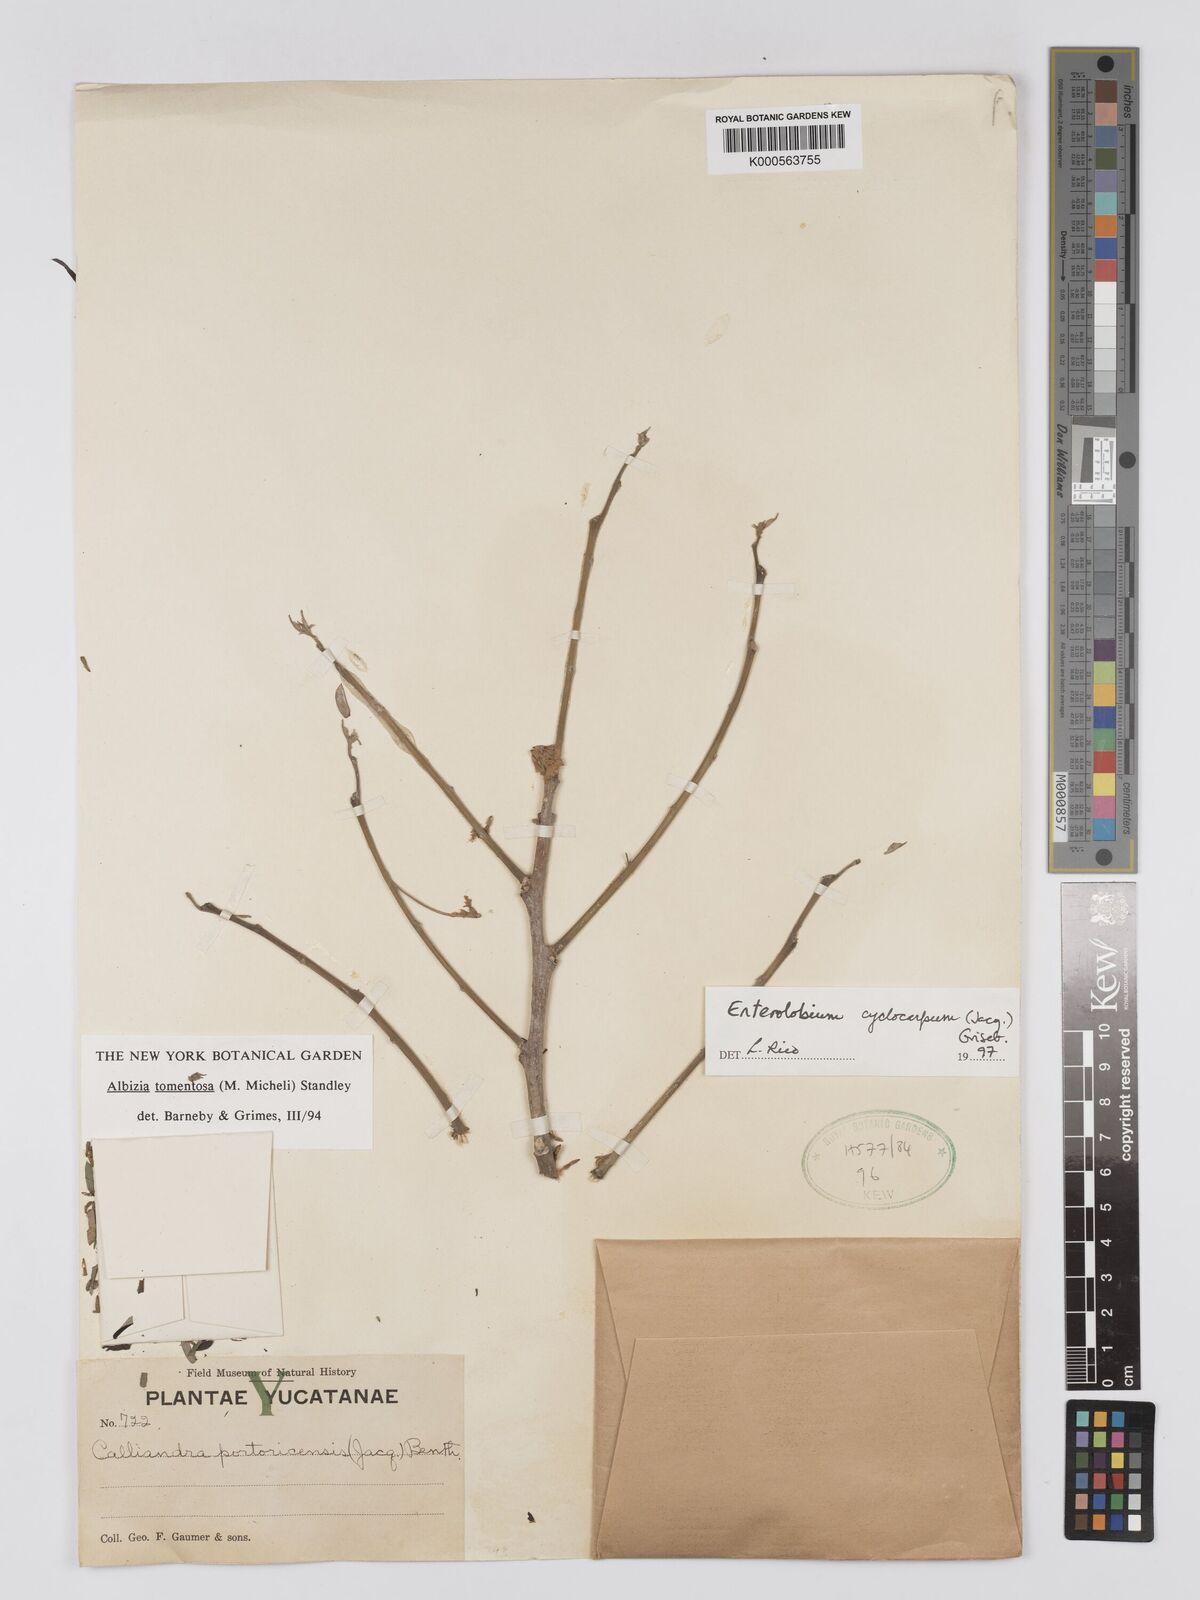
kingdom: Plantae
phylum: Tracheophyta
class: Magnoliopsida
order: Fabales
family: Fabaceae
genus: Enterolobium
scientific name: Enterolobium cyclocarpum
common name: Ear tree
